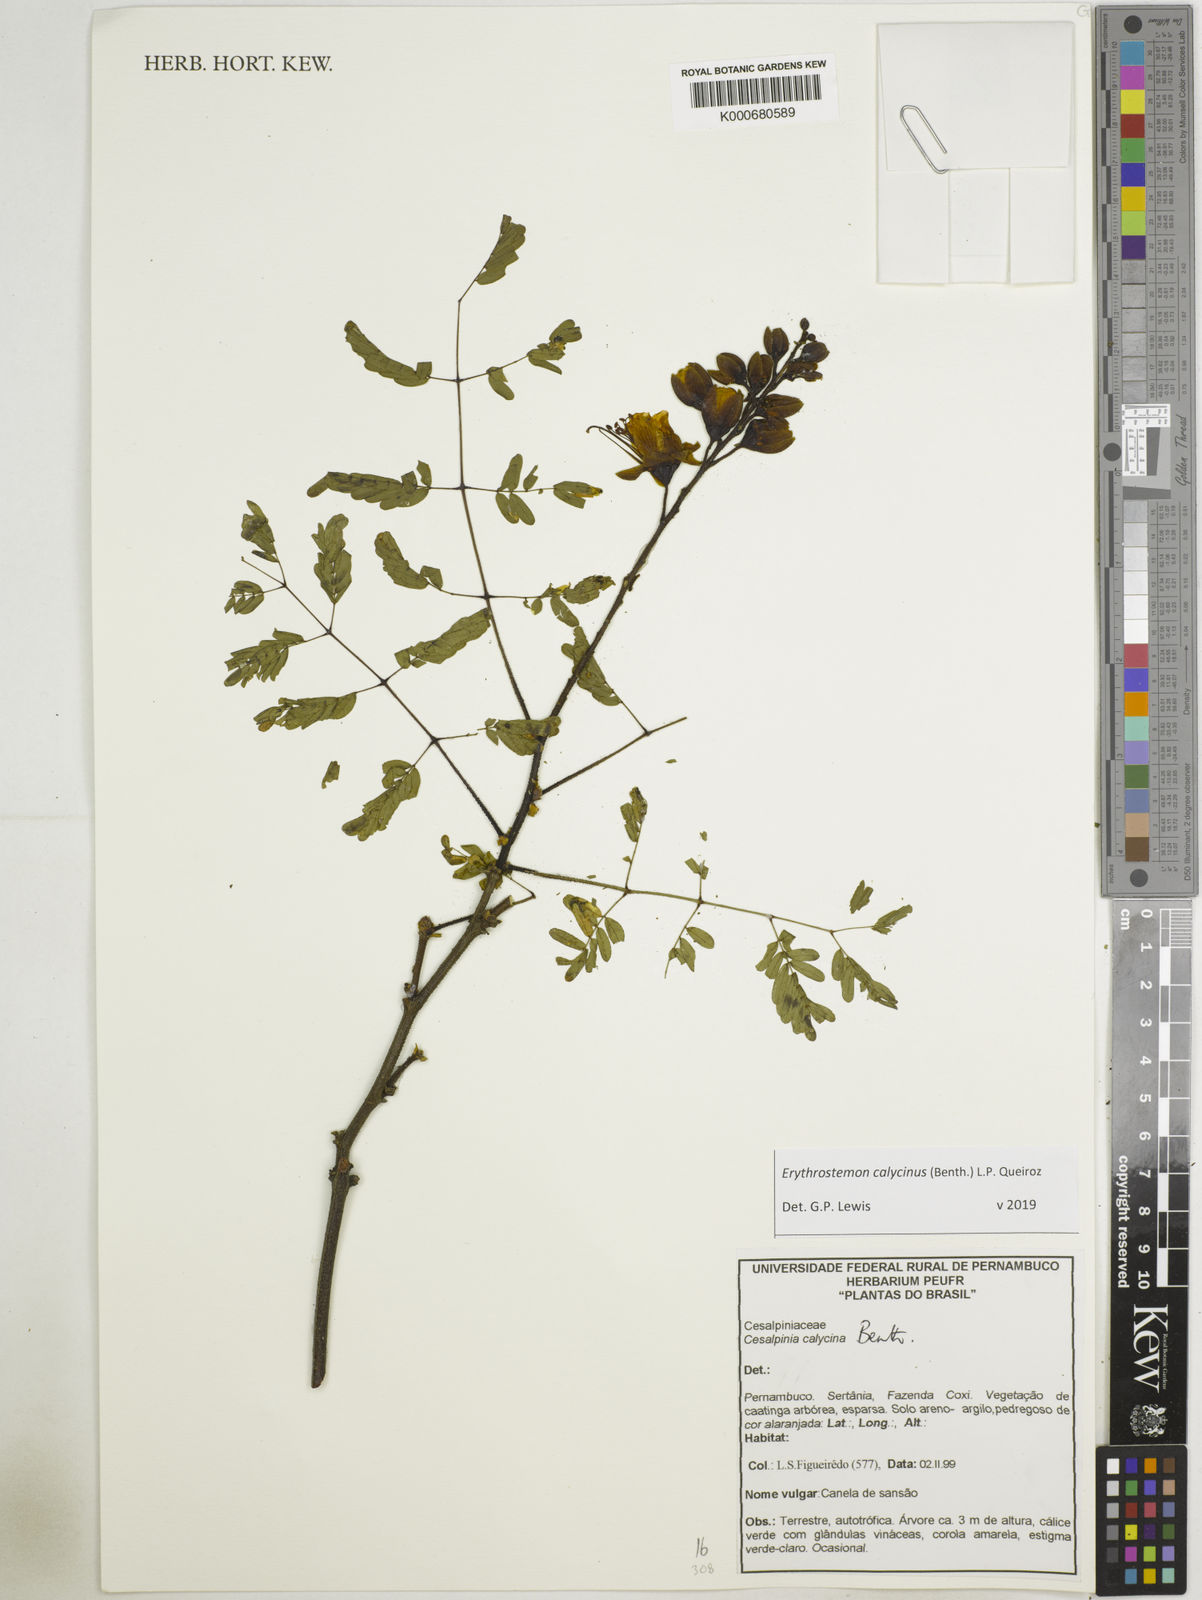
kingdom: Plantae
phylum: Tracheophyta
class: Magnoliopsida
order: Fabales
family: Fabaceae
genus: Erythrostemon
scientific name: Erythrostemon calycinus
